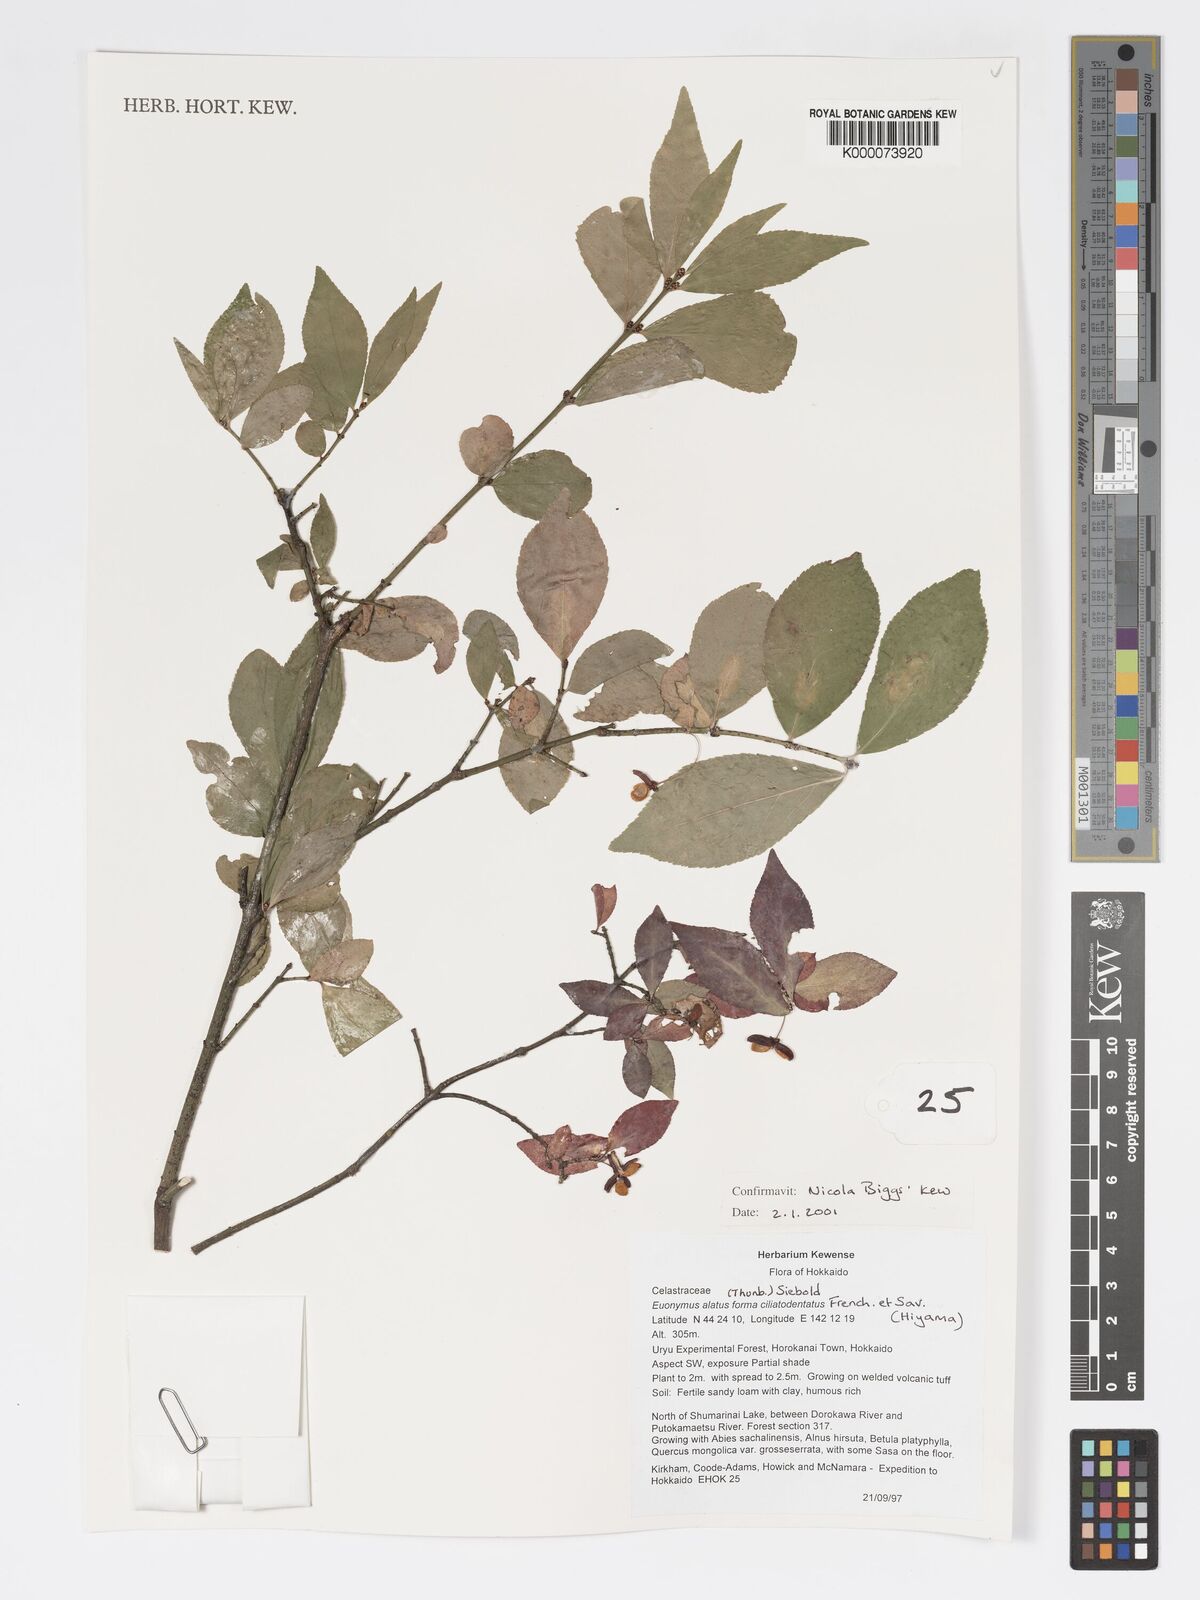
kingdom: Plantae
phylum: Tracheophyta
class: Magnoliopsida
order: Celastrales
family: Celastraceae
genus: Euonymus
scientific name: Euonymus
